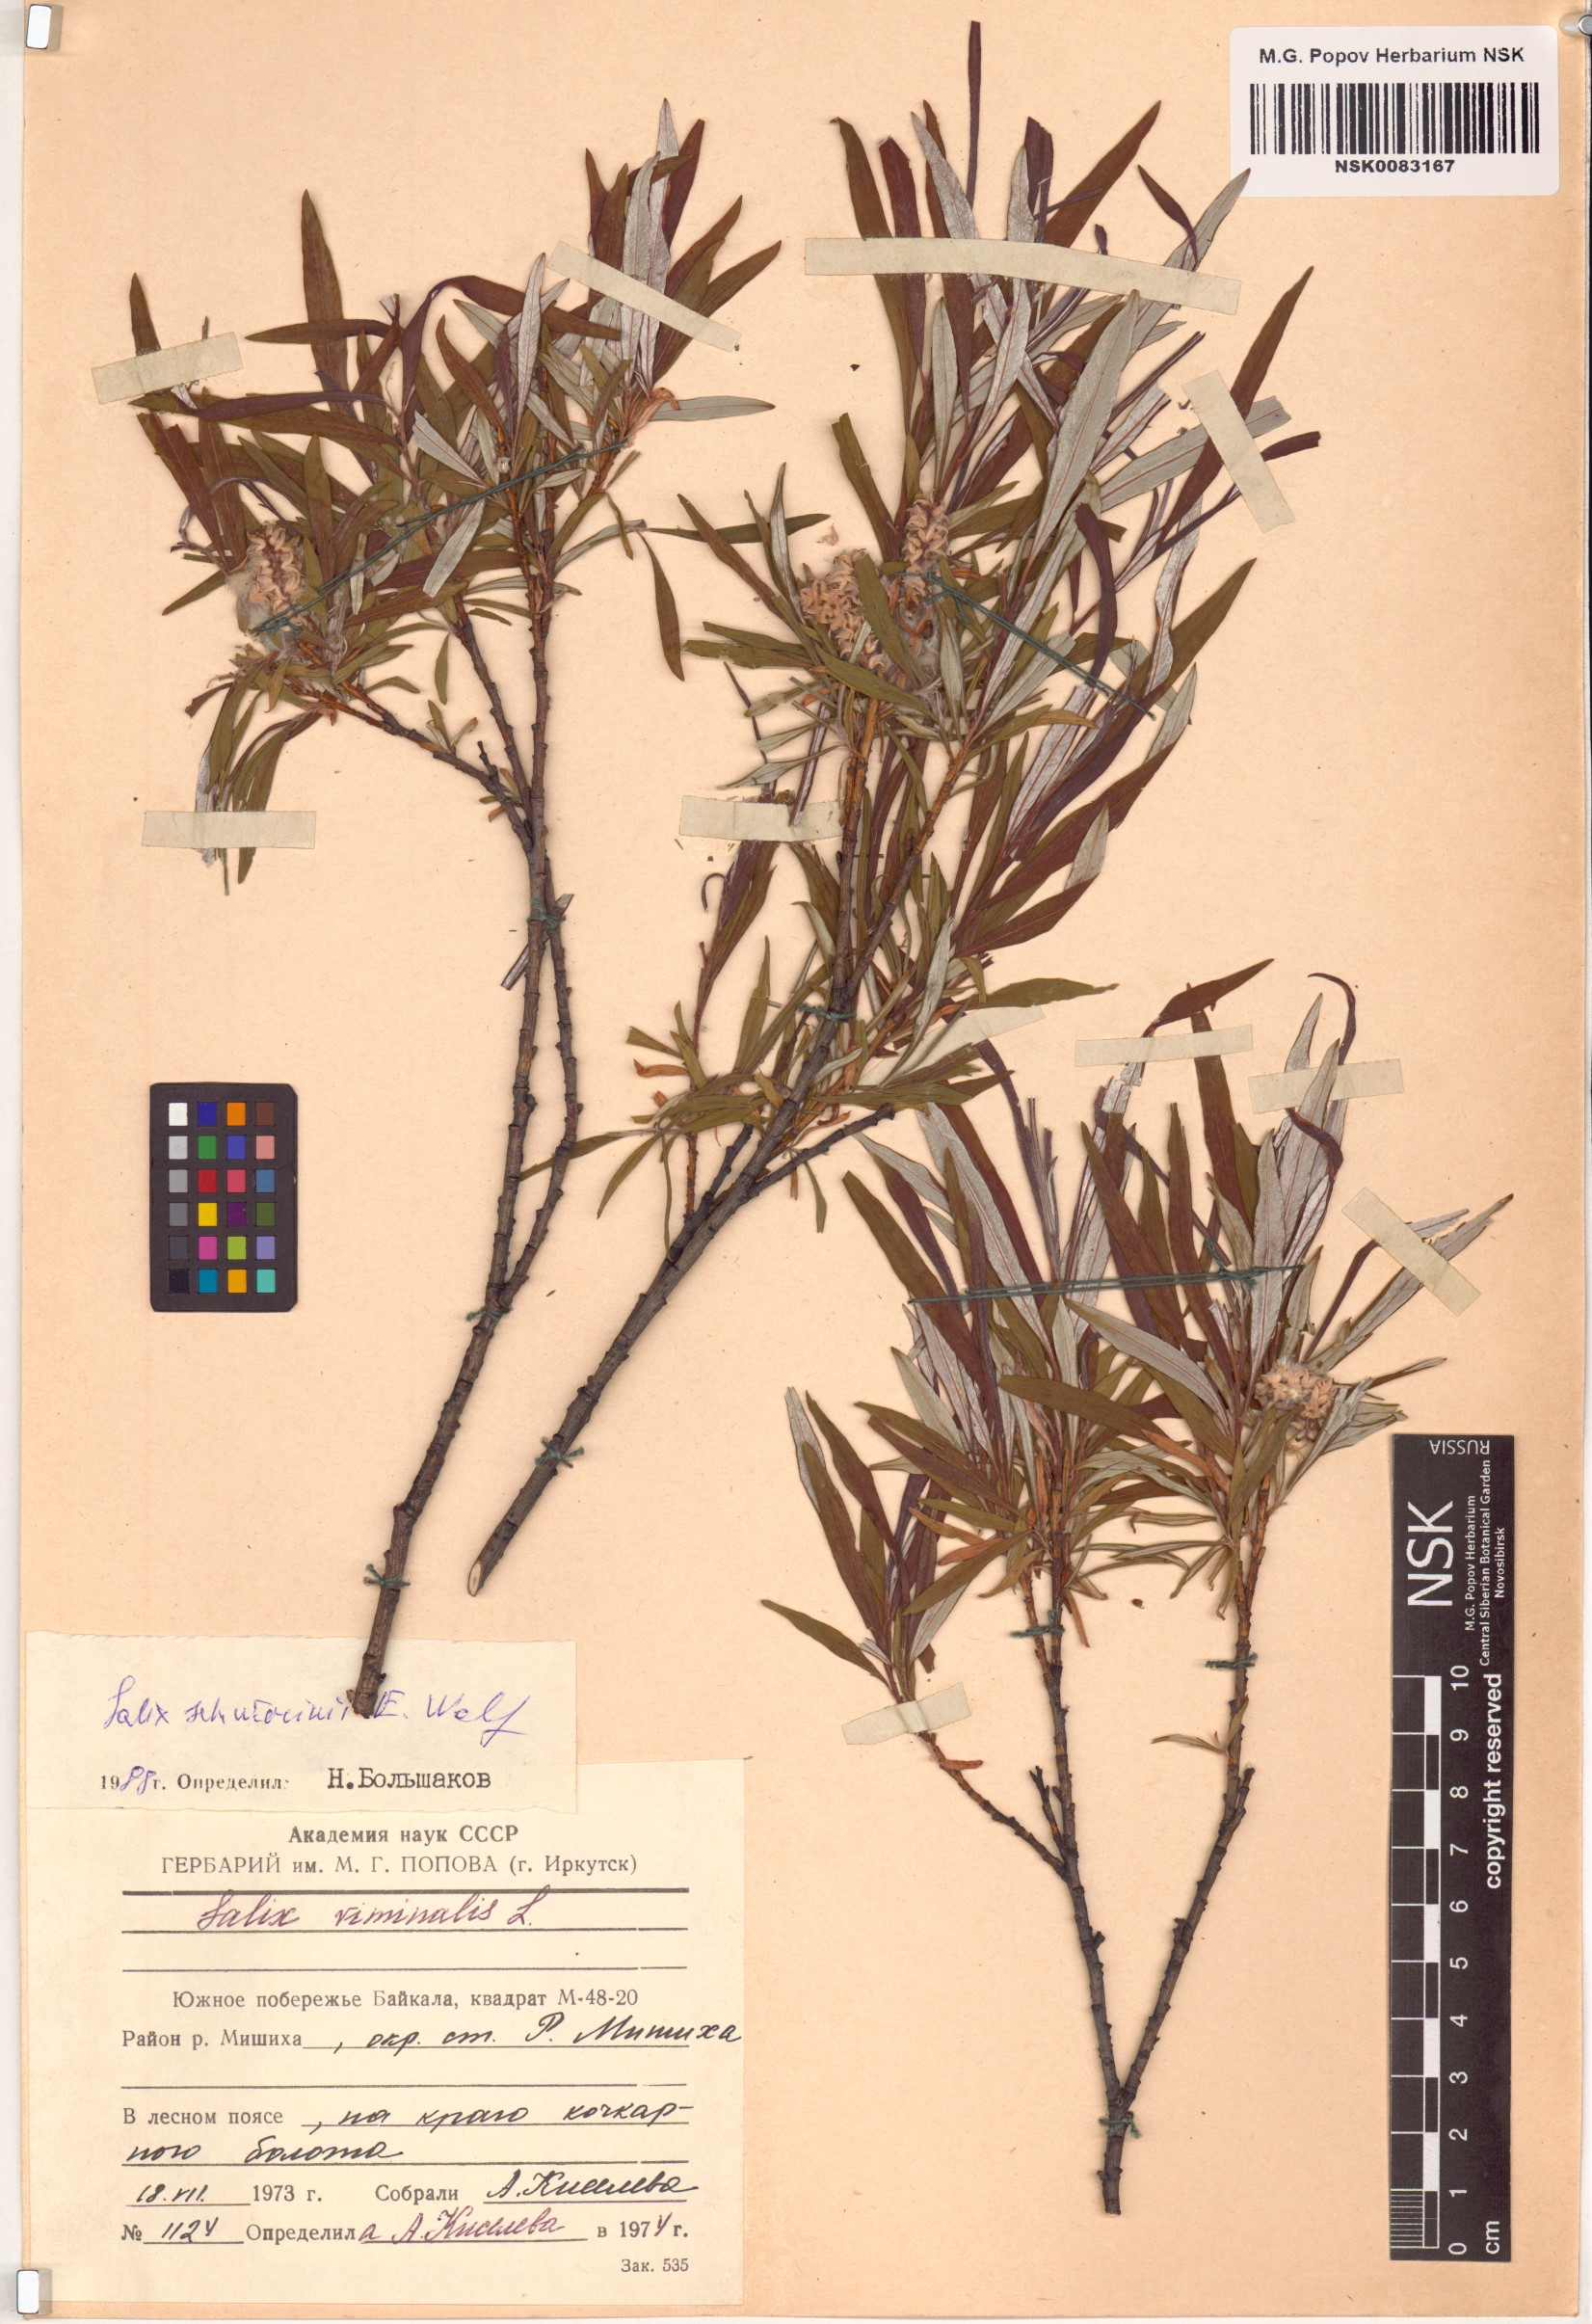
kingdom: Plantae
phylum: Tracheophyta
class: Magnoliopsida
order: Malpighiales
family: Salicaceae
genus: Salix
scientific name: Salix schwerinii
